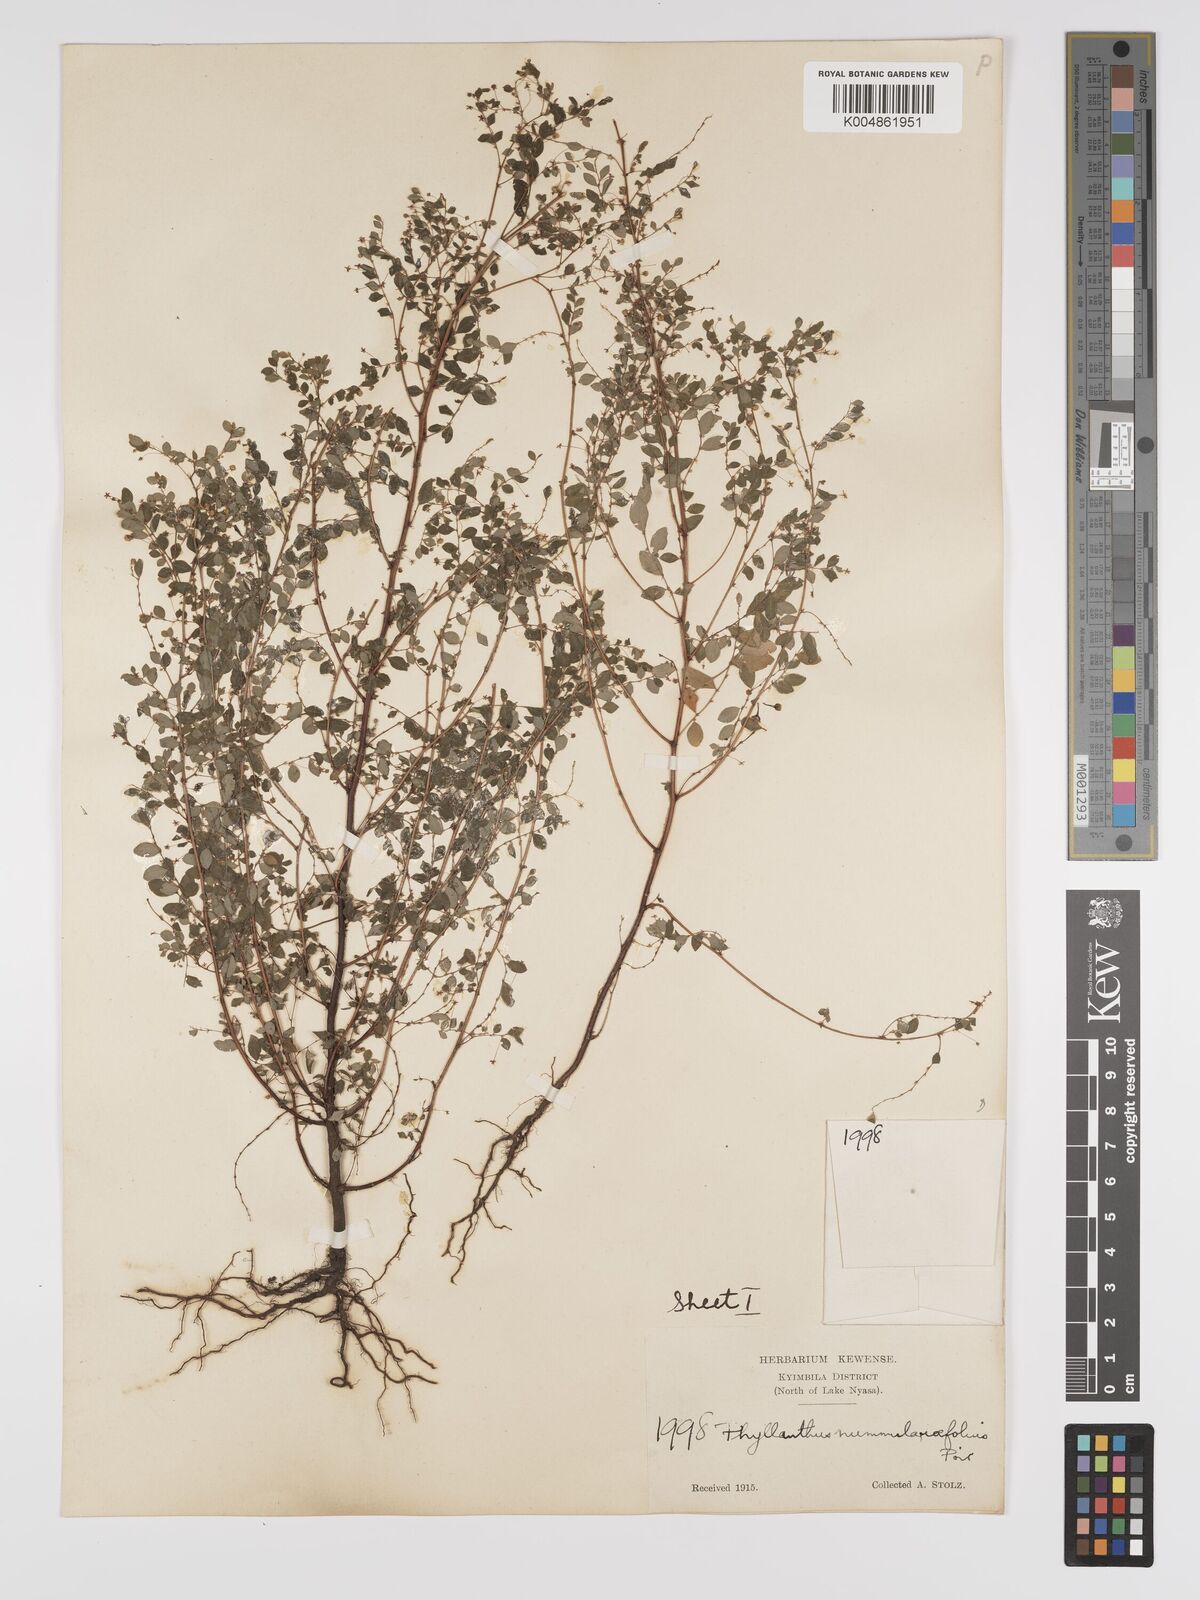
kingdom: Plantae
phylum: Tracheophyta
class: Magnoliopsida
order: Malpighiales
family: Phyllanthaceae
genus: Phyllanthus
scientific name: Phyllanthus nummulariifolius
